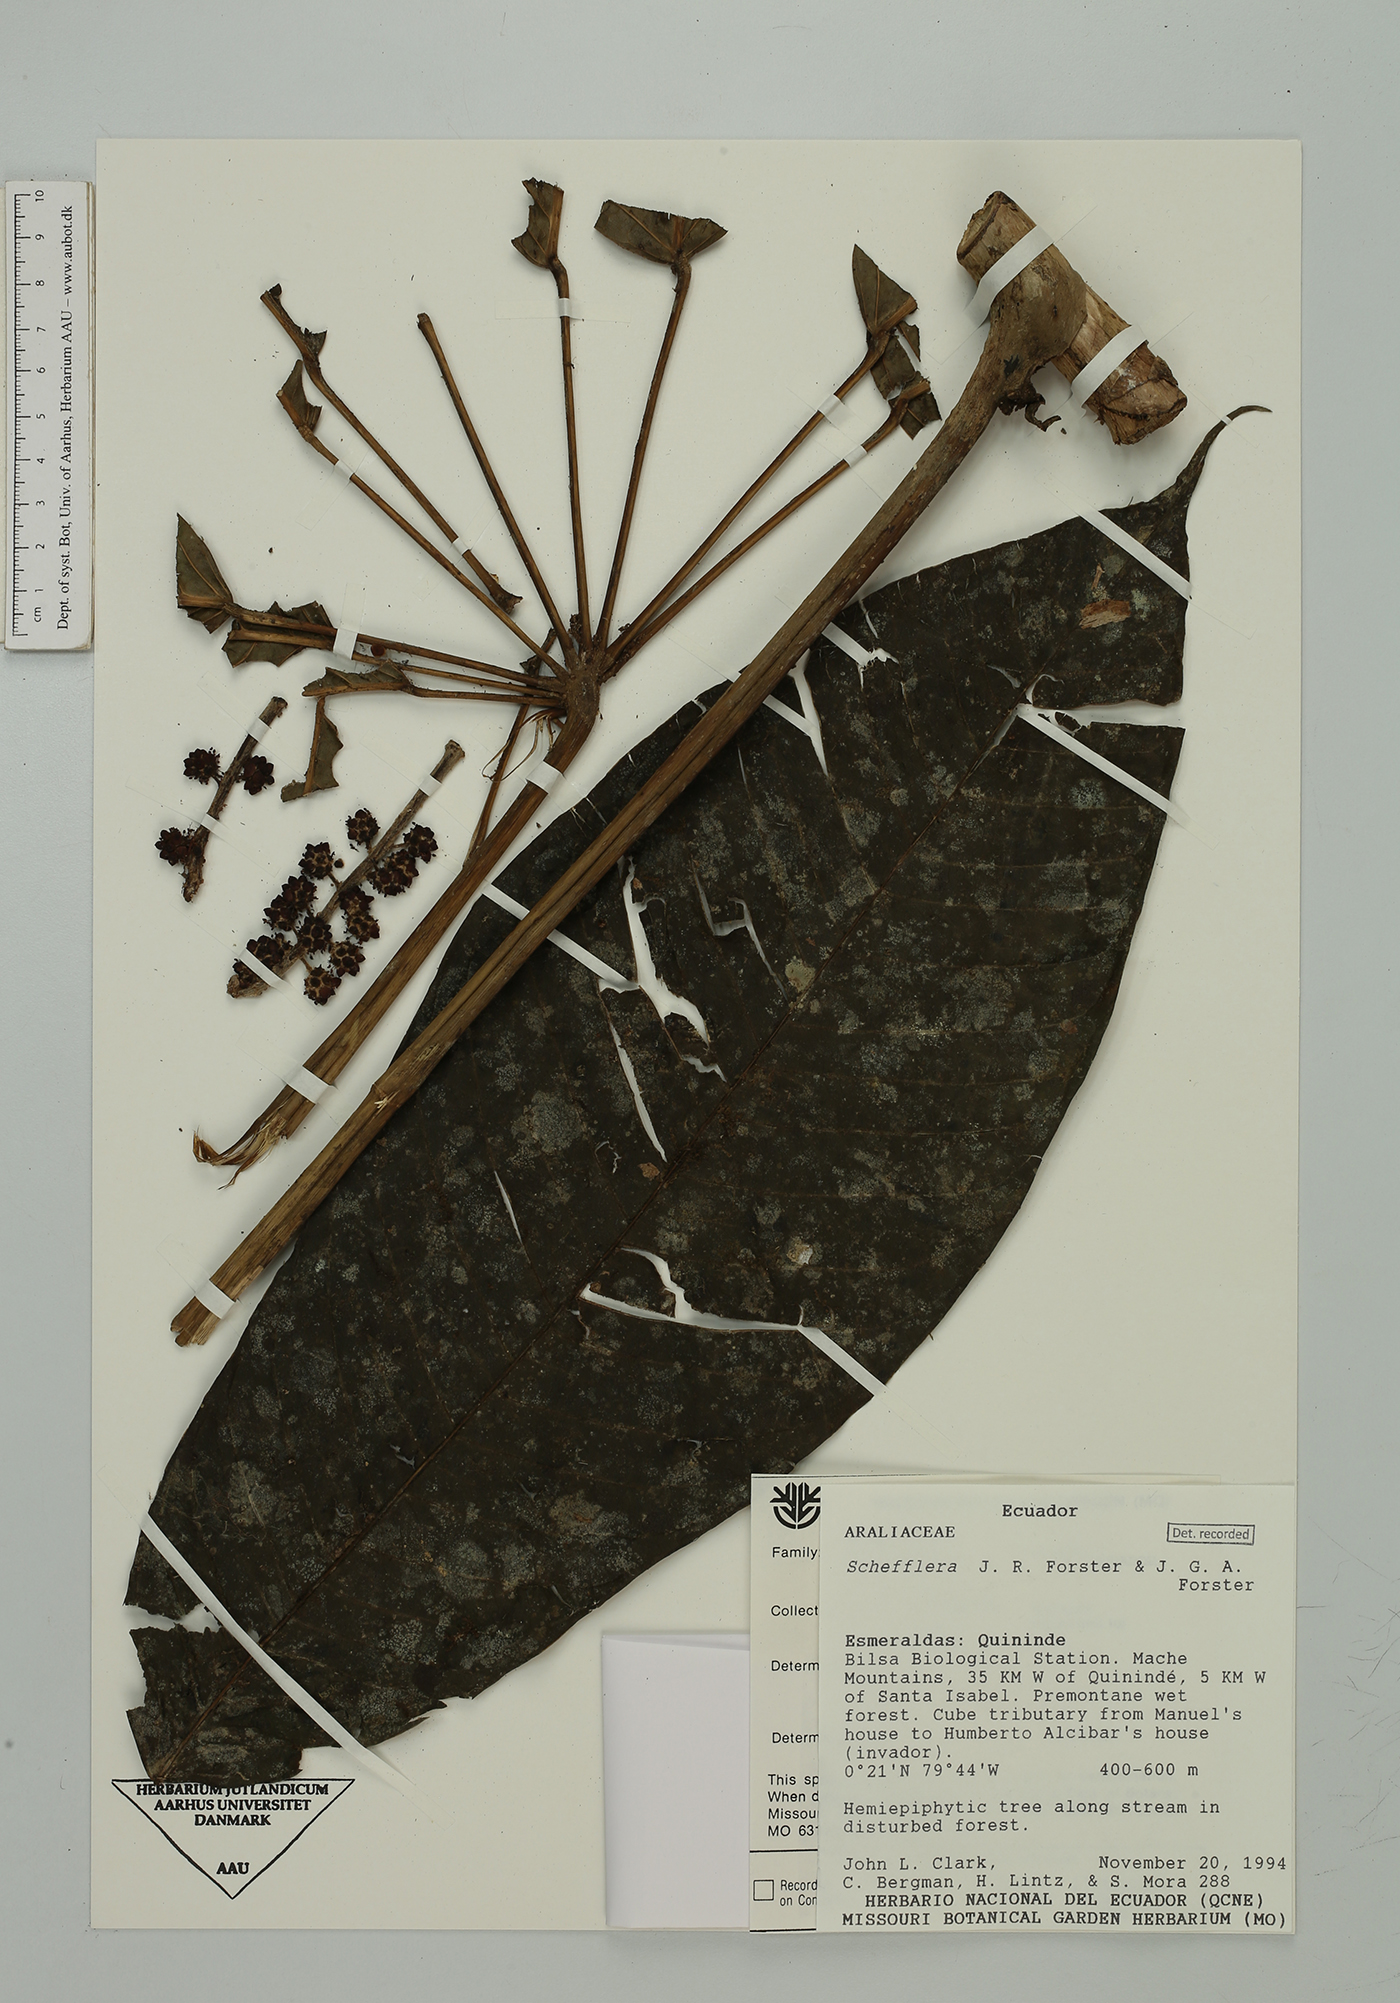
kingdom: Plantae
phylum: Tracheophyta
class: Magnoliopsida
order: Apiales
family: Araliaceae
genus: Sciodaphyllum
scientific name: Sciodaphyllum
